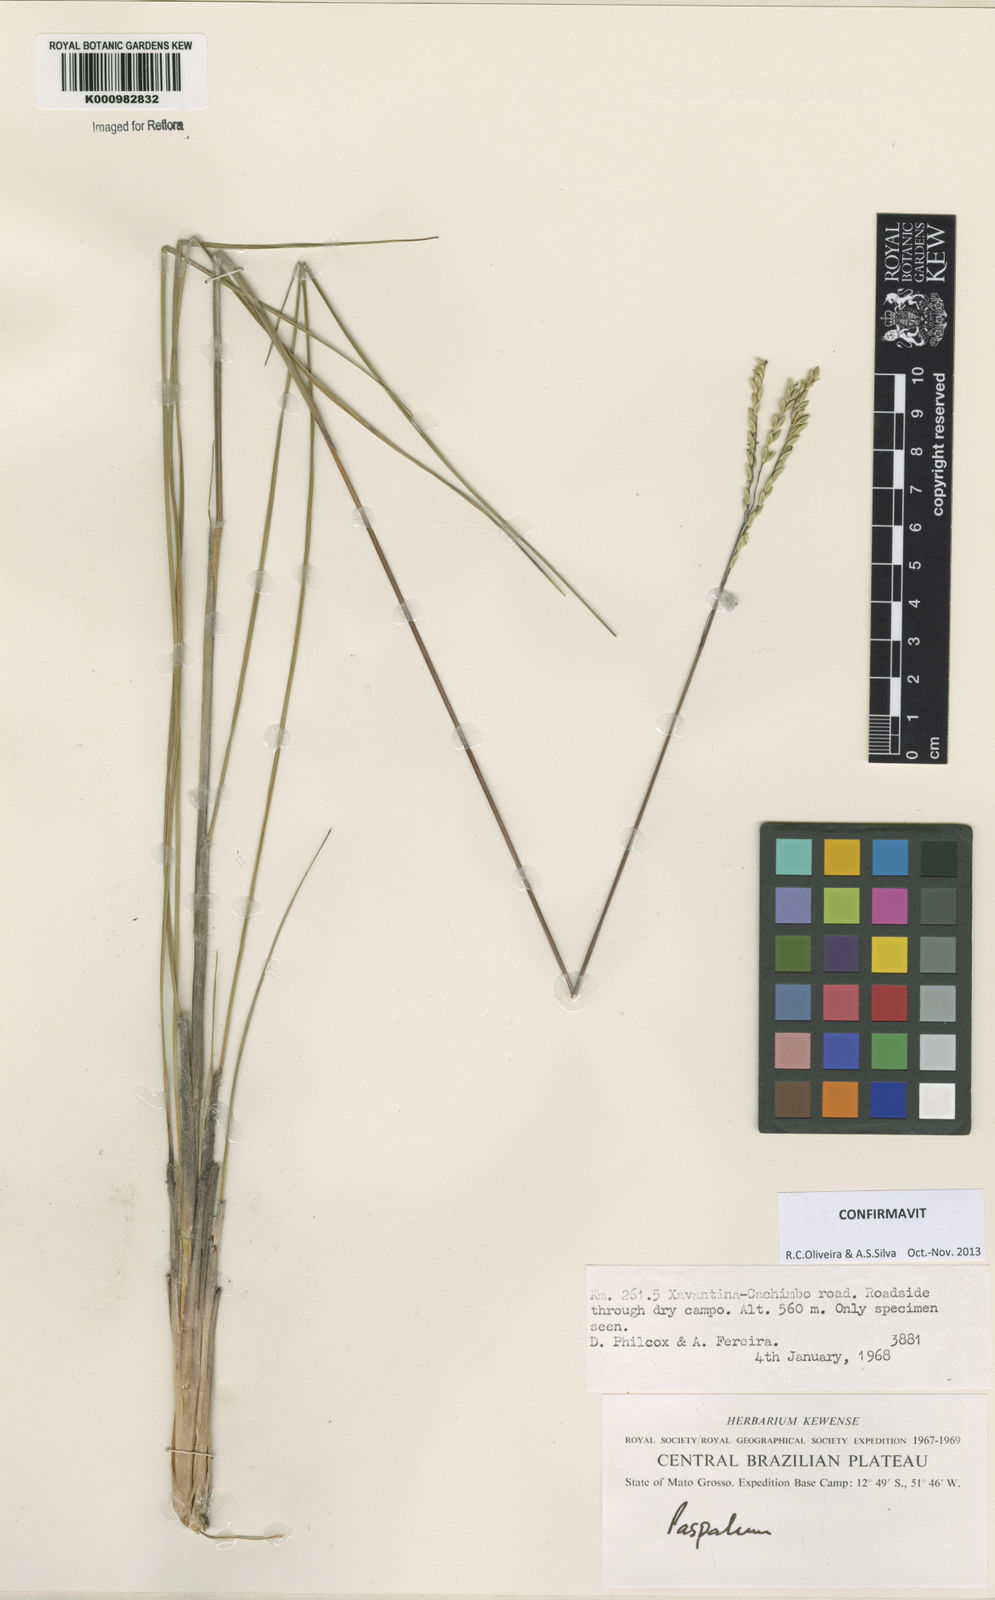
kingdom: Plantae
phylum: Tracheophyta
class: Liliopsida
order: Poales
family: Poaceae
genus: Paspalum
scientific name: Paspalum lineare
